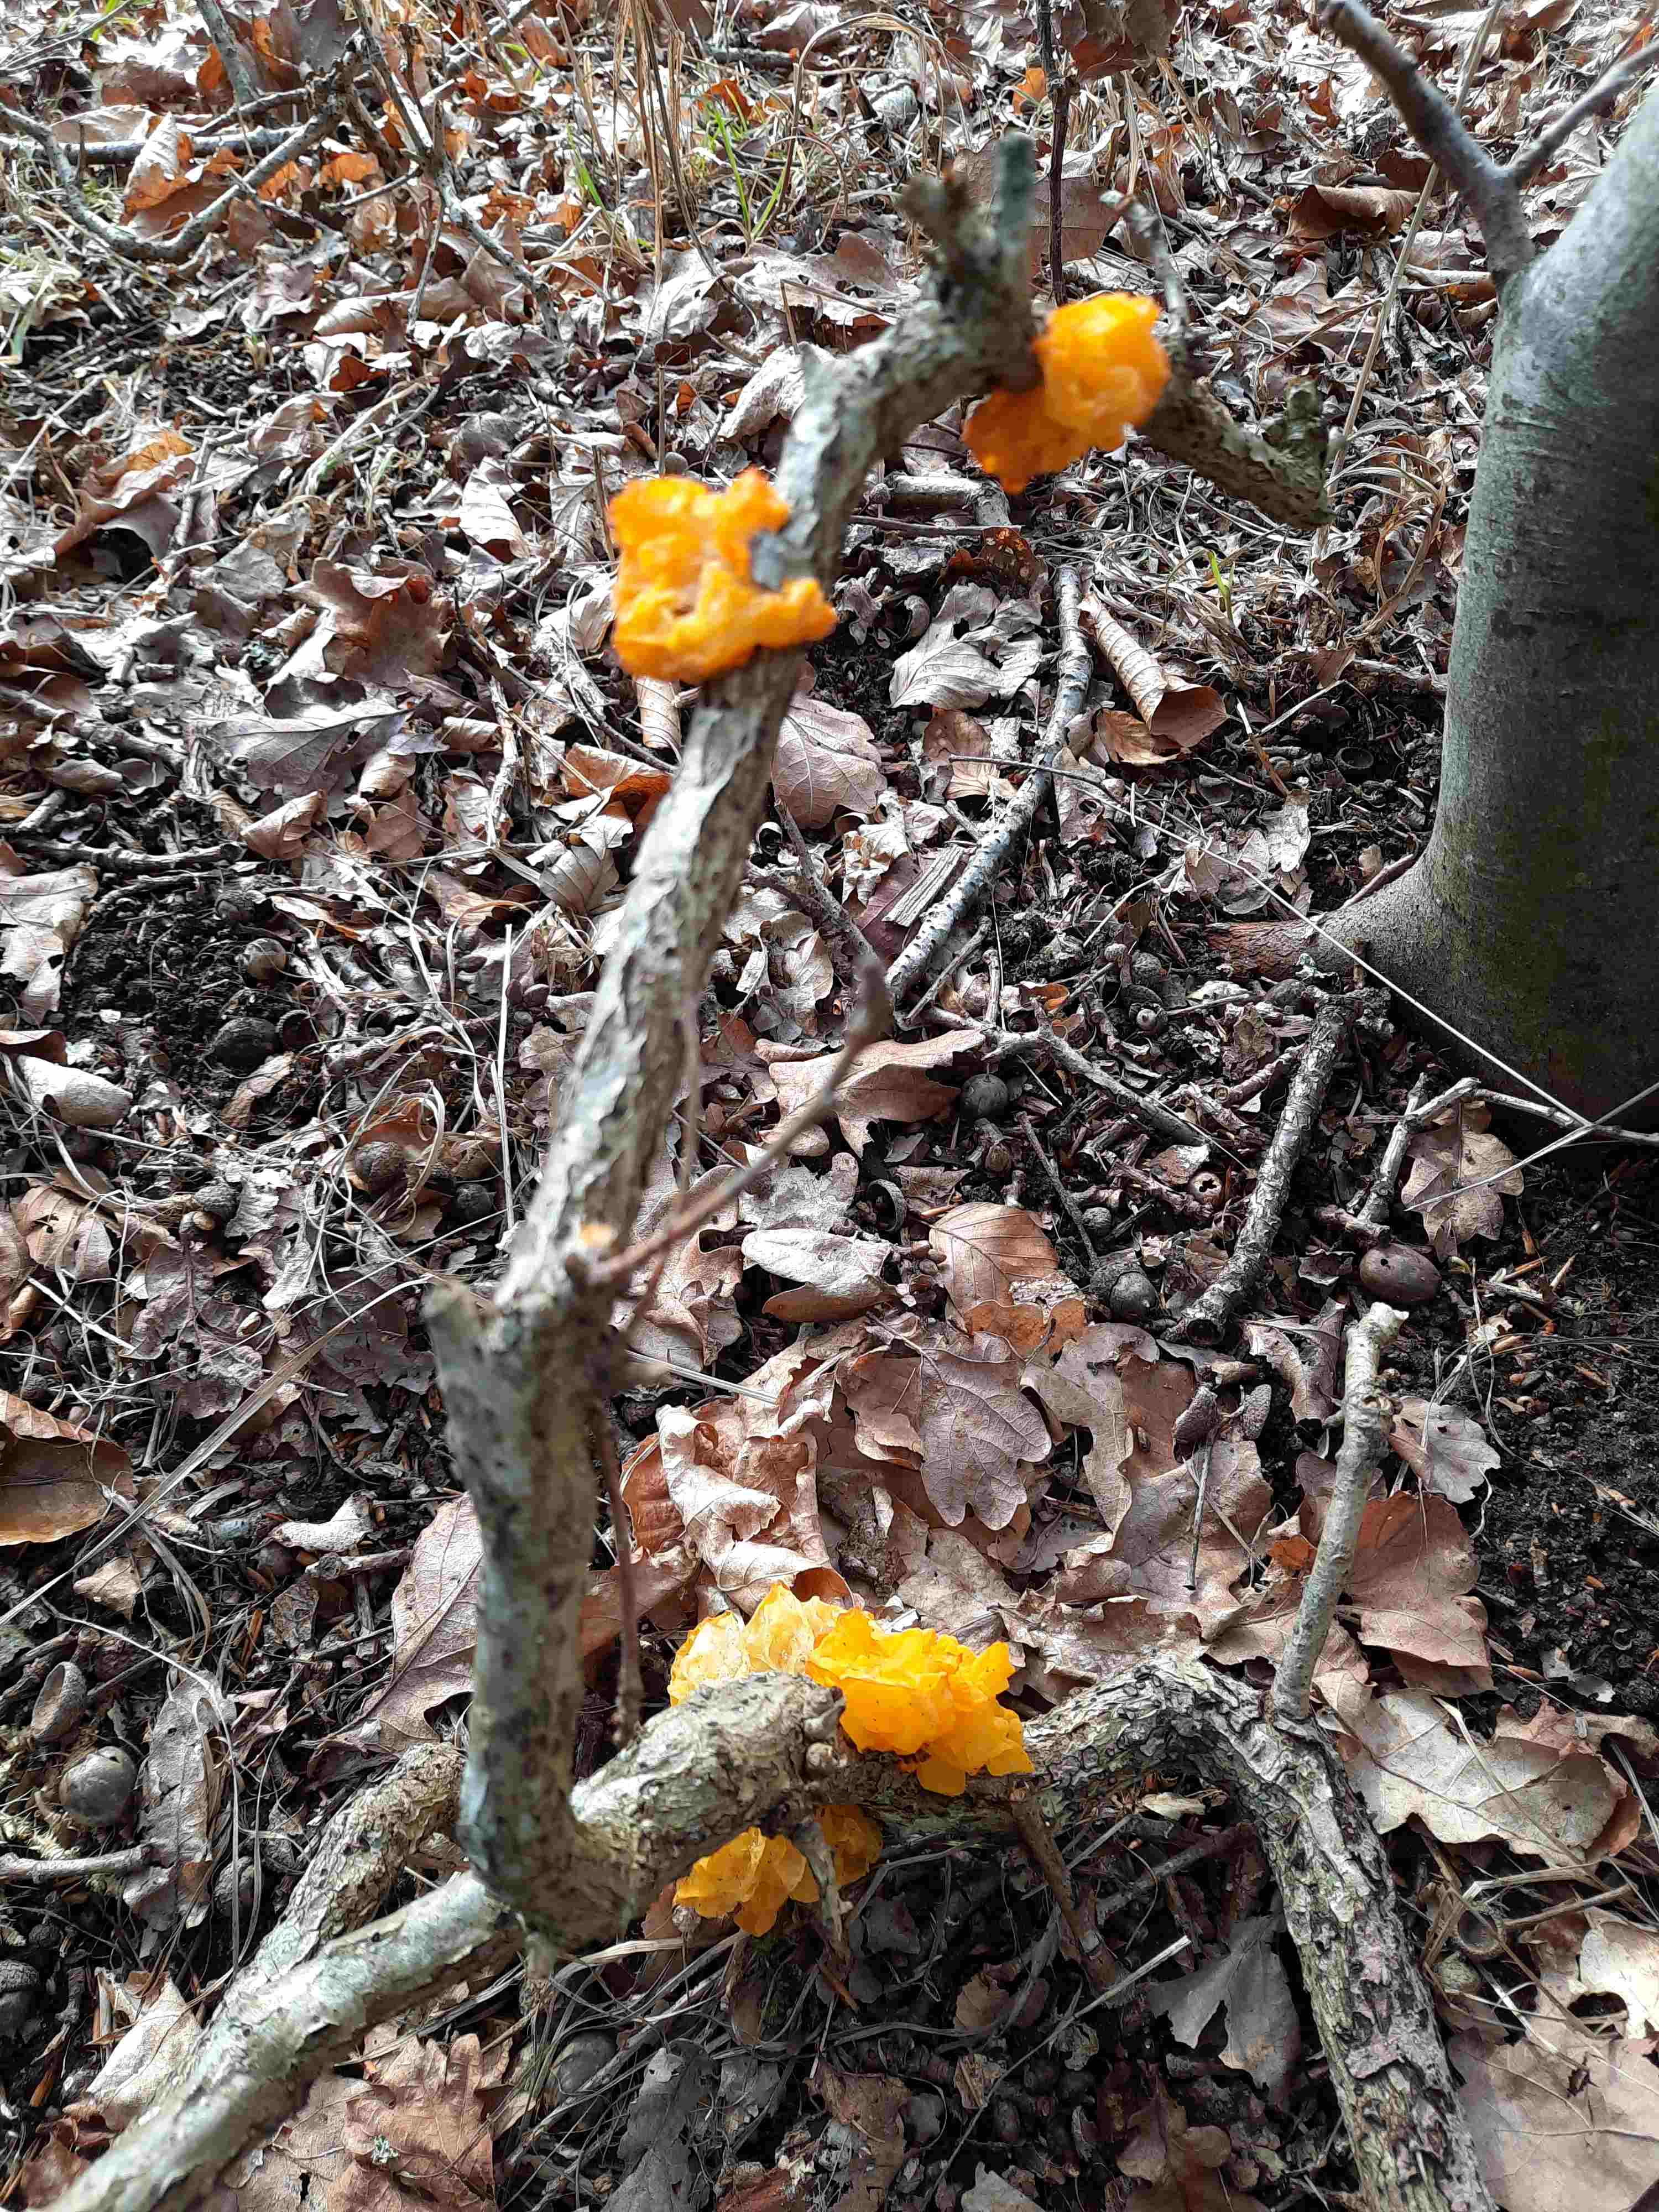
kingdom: Fungi
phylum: Basidiomycota
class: Tremellomycetes
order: Tremellales
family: Tremellaceae
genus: Tremella
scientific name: Tremella mesenterica
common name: gul bævresvamp
